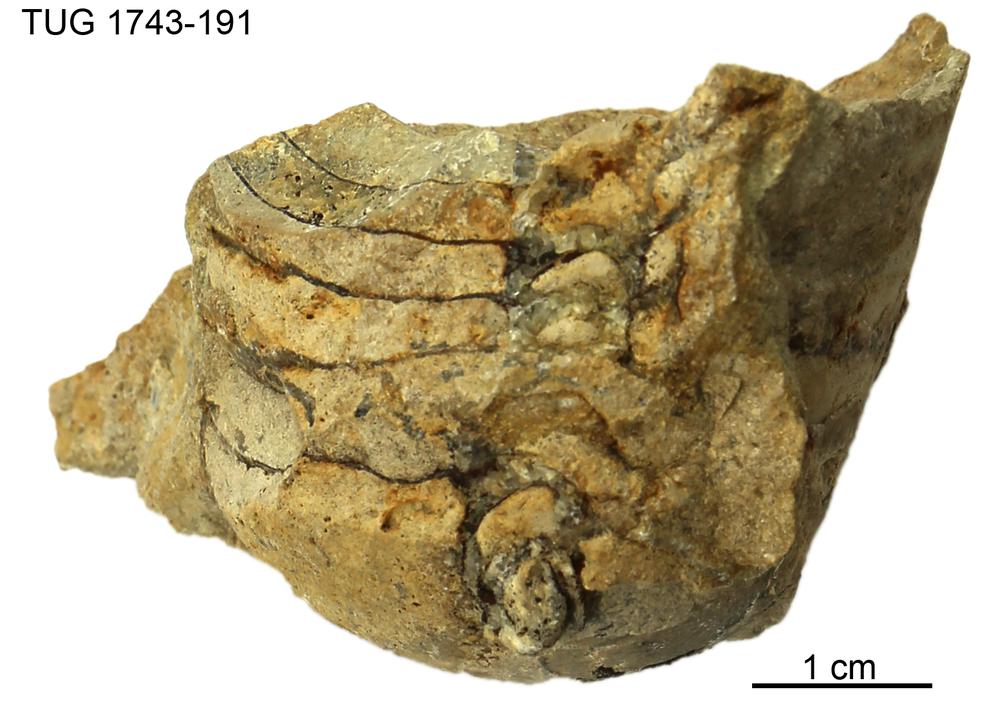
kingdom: Animalia
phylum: Mollusca
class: Cephalopoda
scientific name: Cephalopoda
